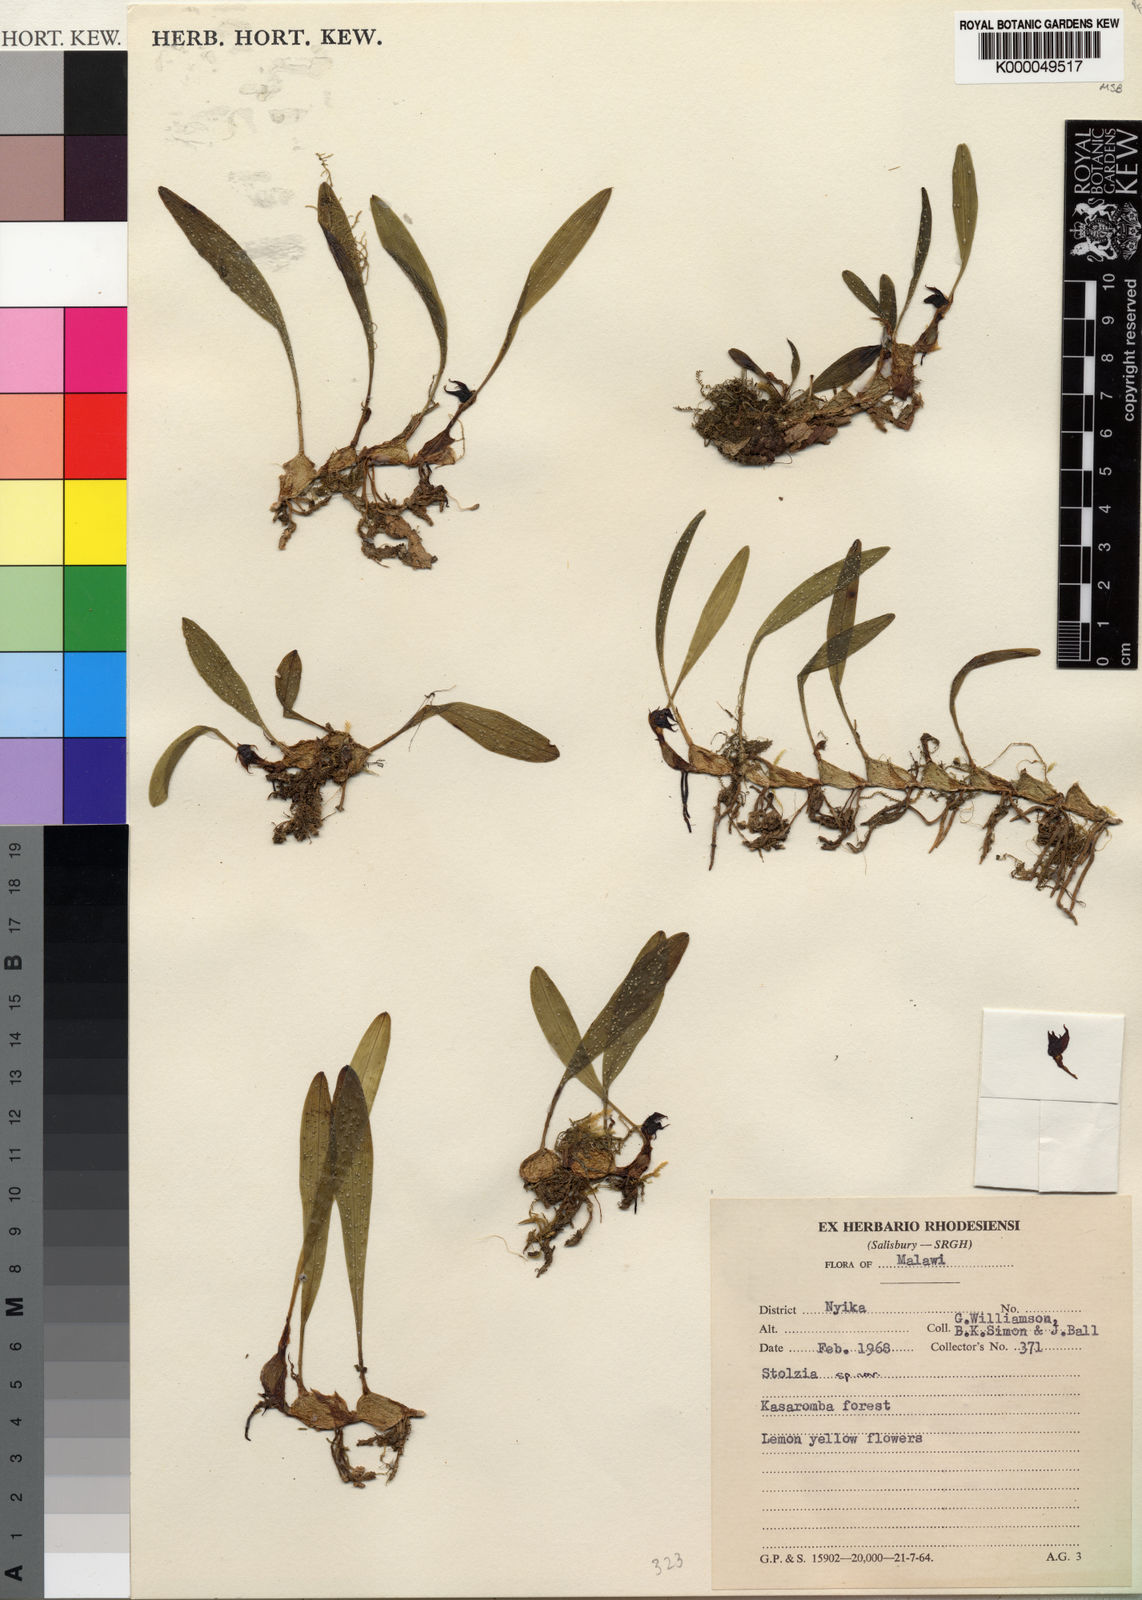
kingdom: Plantae
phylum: Tracheophyta
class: Liliopsida
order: Asparagales
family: Orchidaceae
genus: Porpax
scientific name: Porpax compacta
